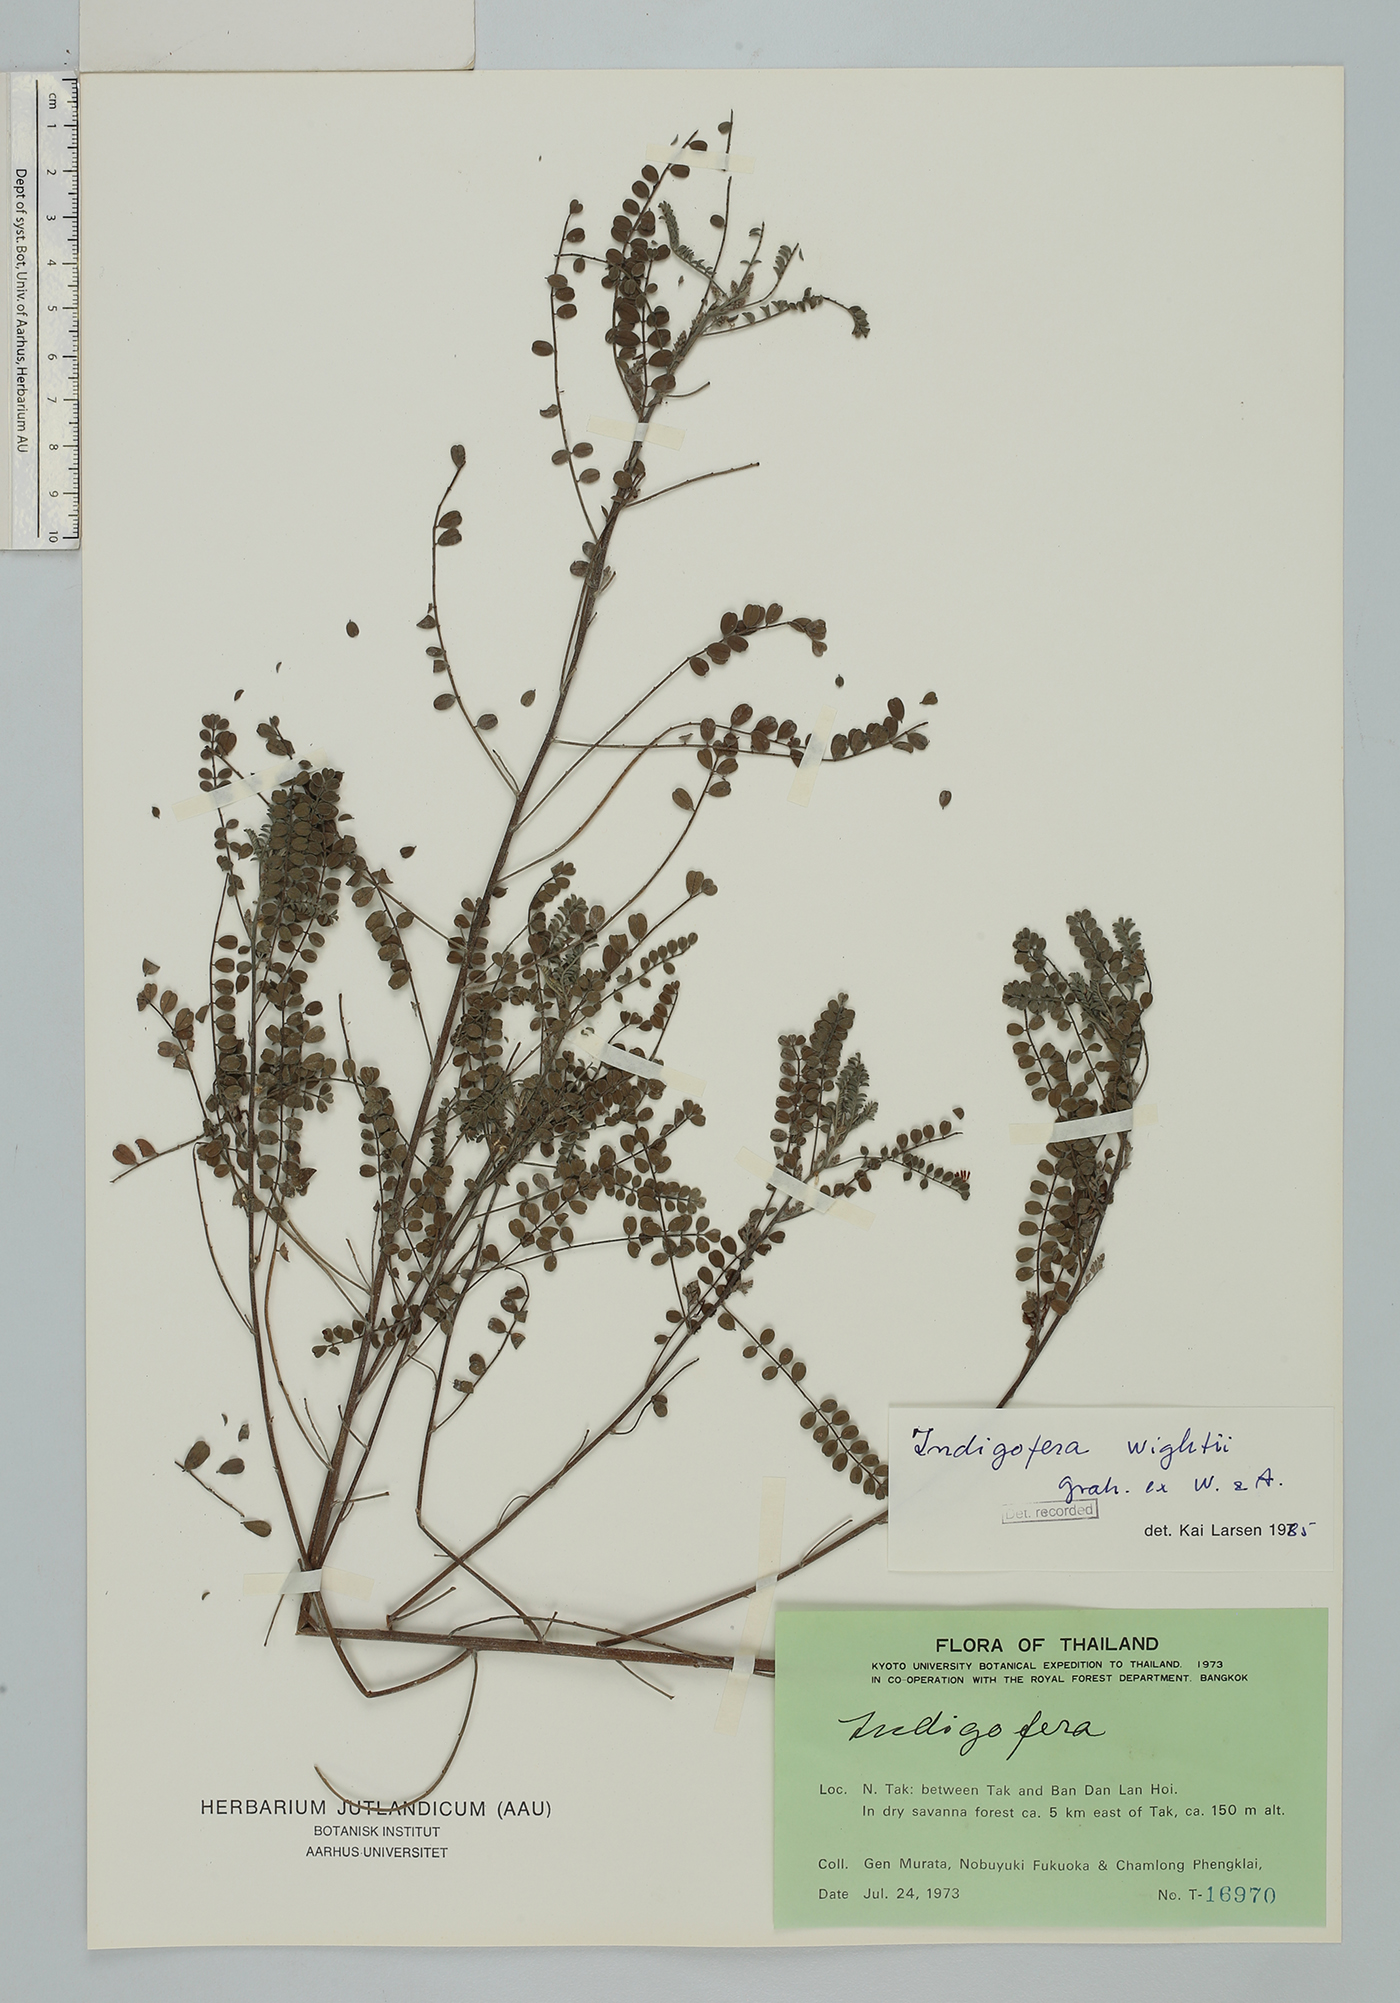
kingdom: Plantae
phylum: Tracheophyta
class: Magnoliopsida
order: Fabales
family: Fabaceae
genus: Indigofera
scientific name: Indigofera wightii
